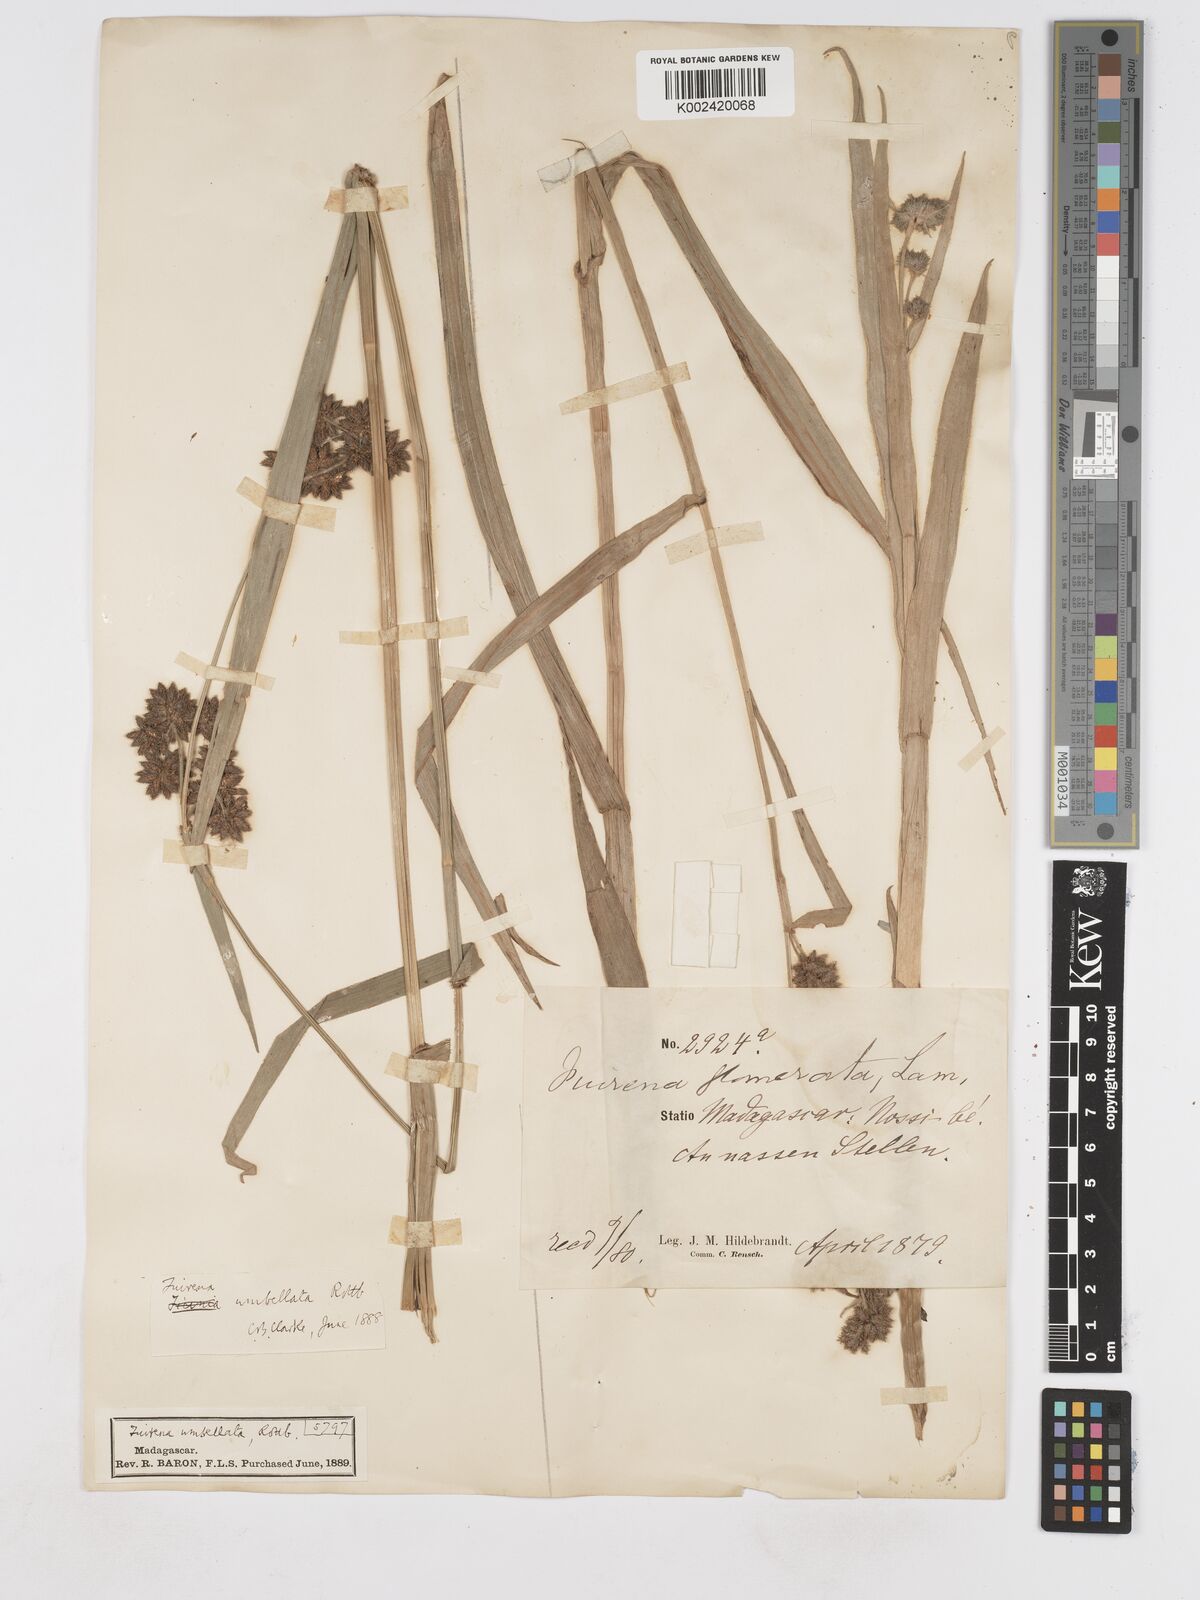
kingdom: Plantae
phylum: Tracheophyta
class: Liliopsida
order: Poales
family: Cyperaceae
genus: Fuirena
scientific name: Fuirena umbellata
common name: Yefen
